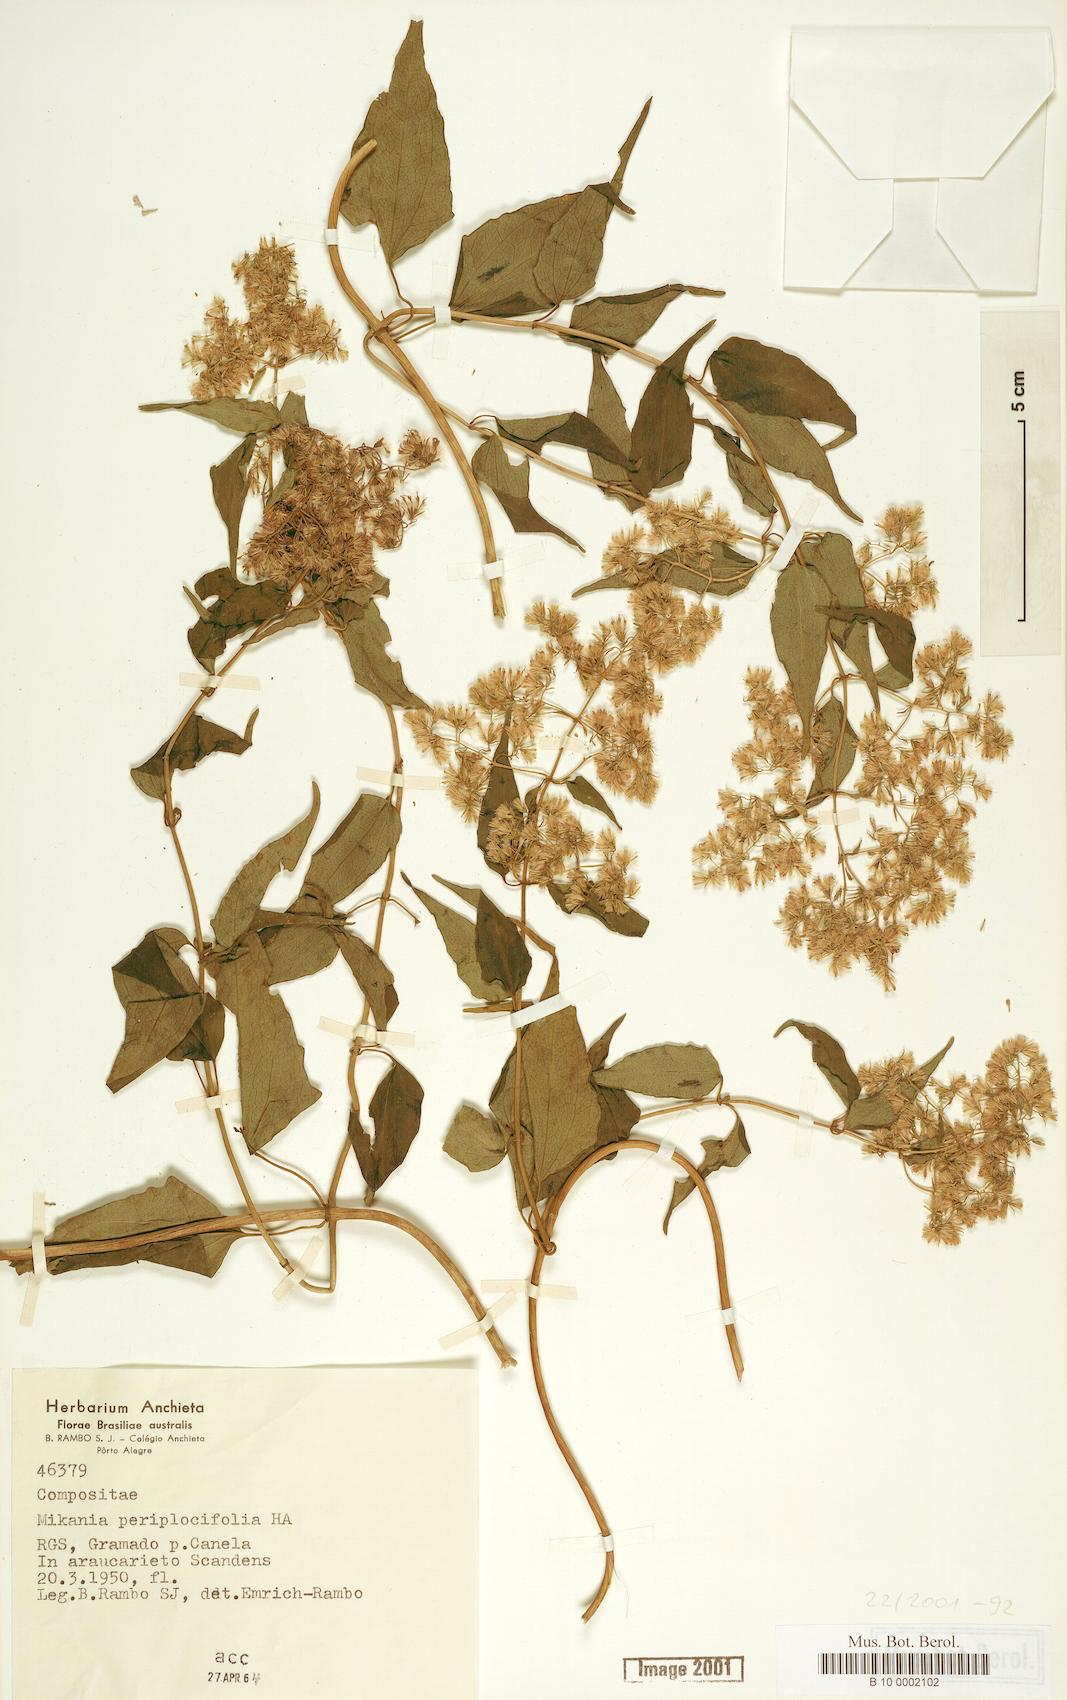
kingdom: Plantae
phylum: Tracheophyta
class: Magnoliopsida
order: Asterales
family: Asteraceae
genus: Mikania
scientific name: Mikania periplocifolia
